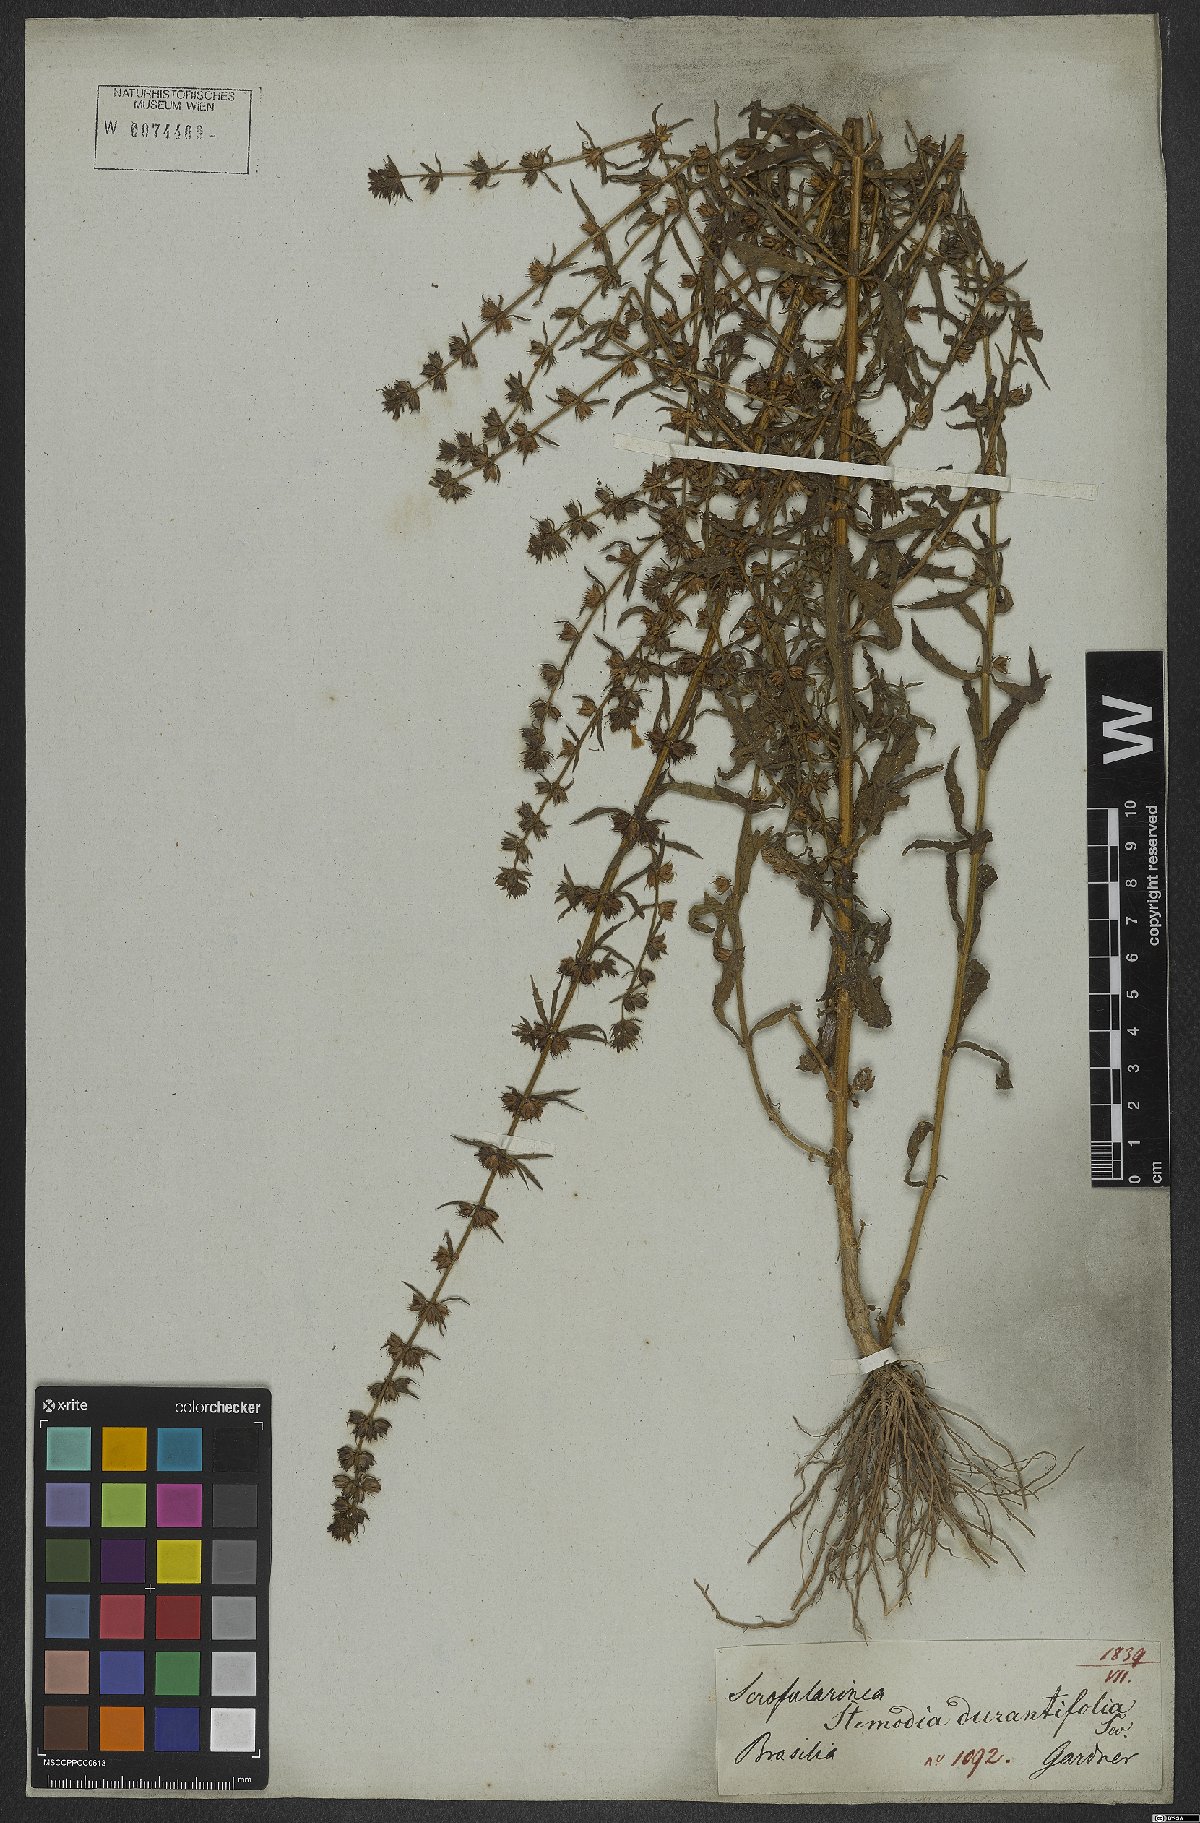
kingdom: Plantae
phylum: Tracheophyta
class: Magnoliopsida
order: Lamiales
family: Plantaginaceae
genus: Stemodia
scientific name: Stemodia durantifolia
